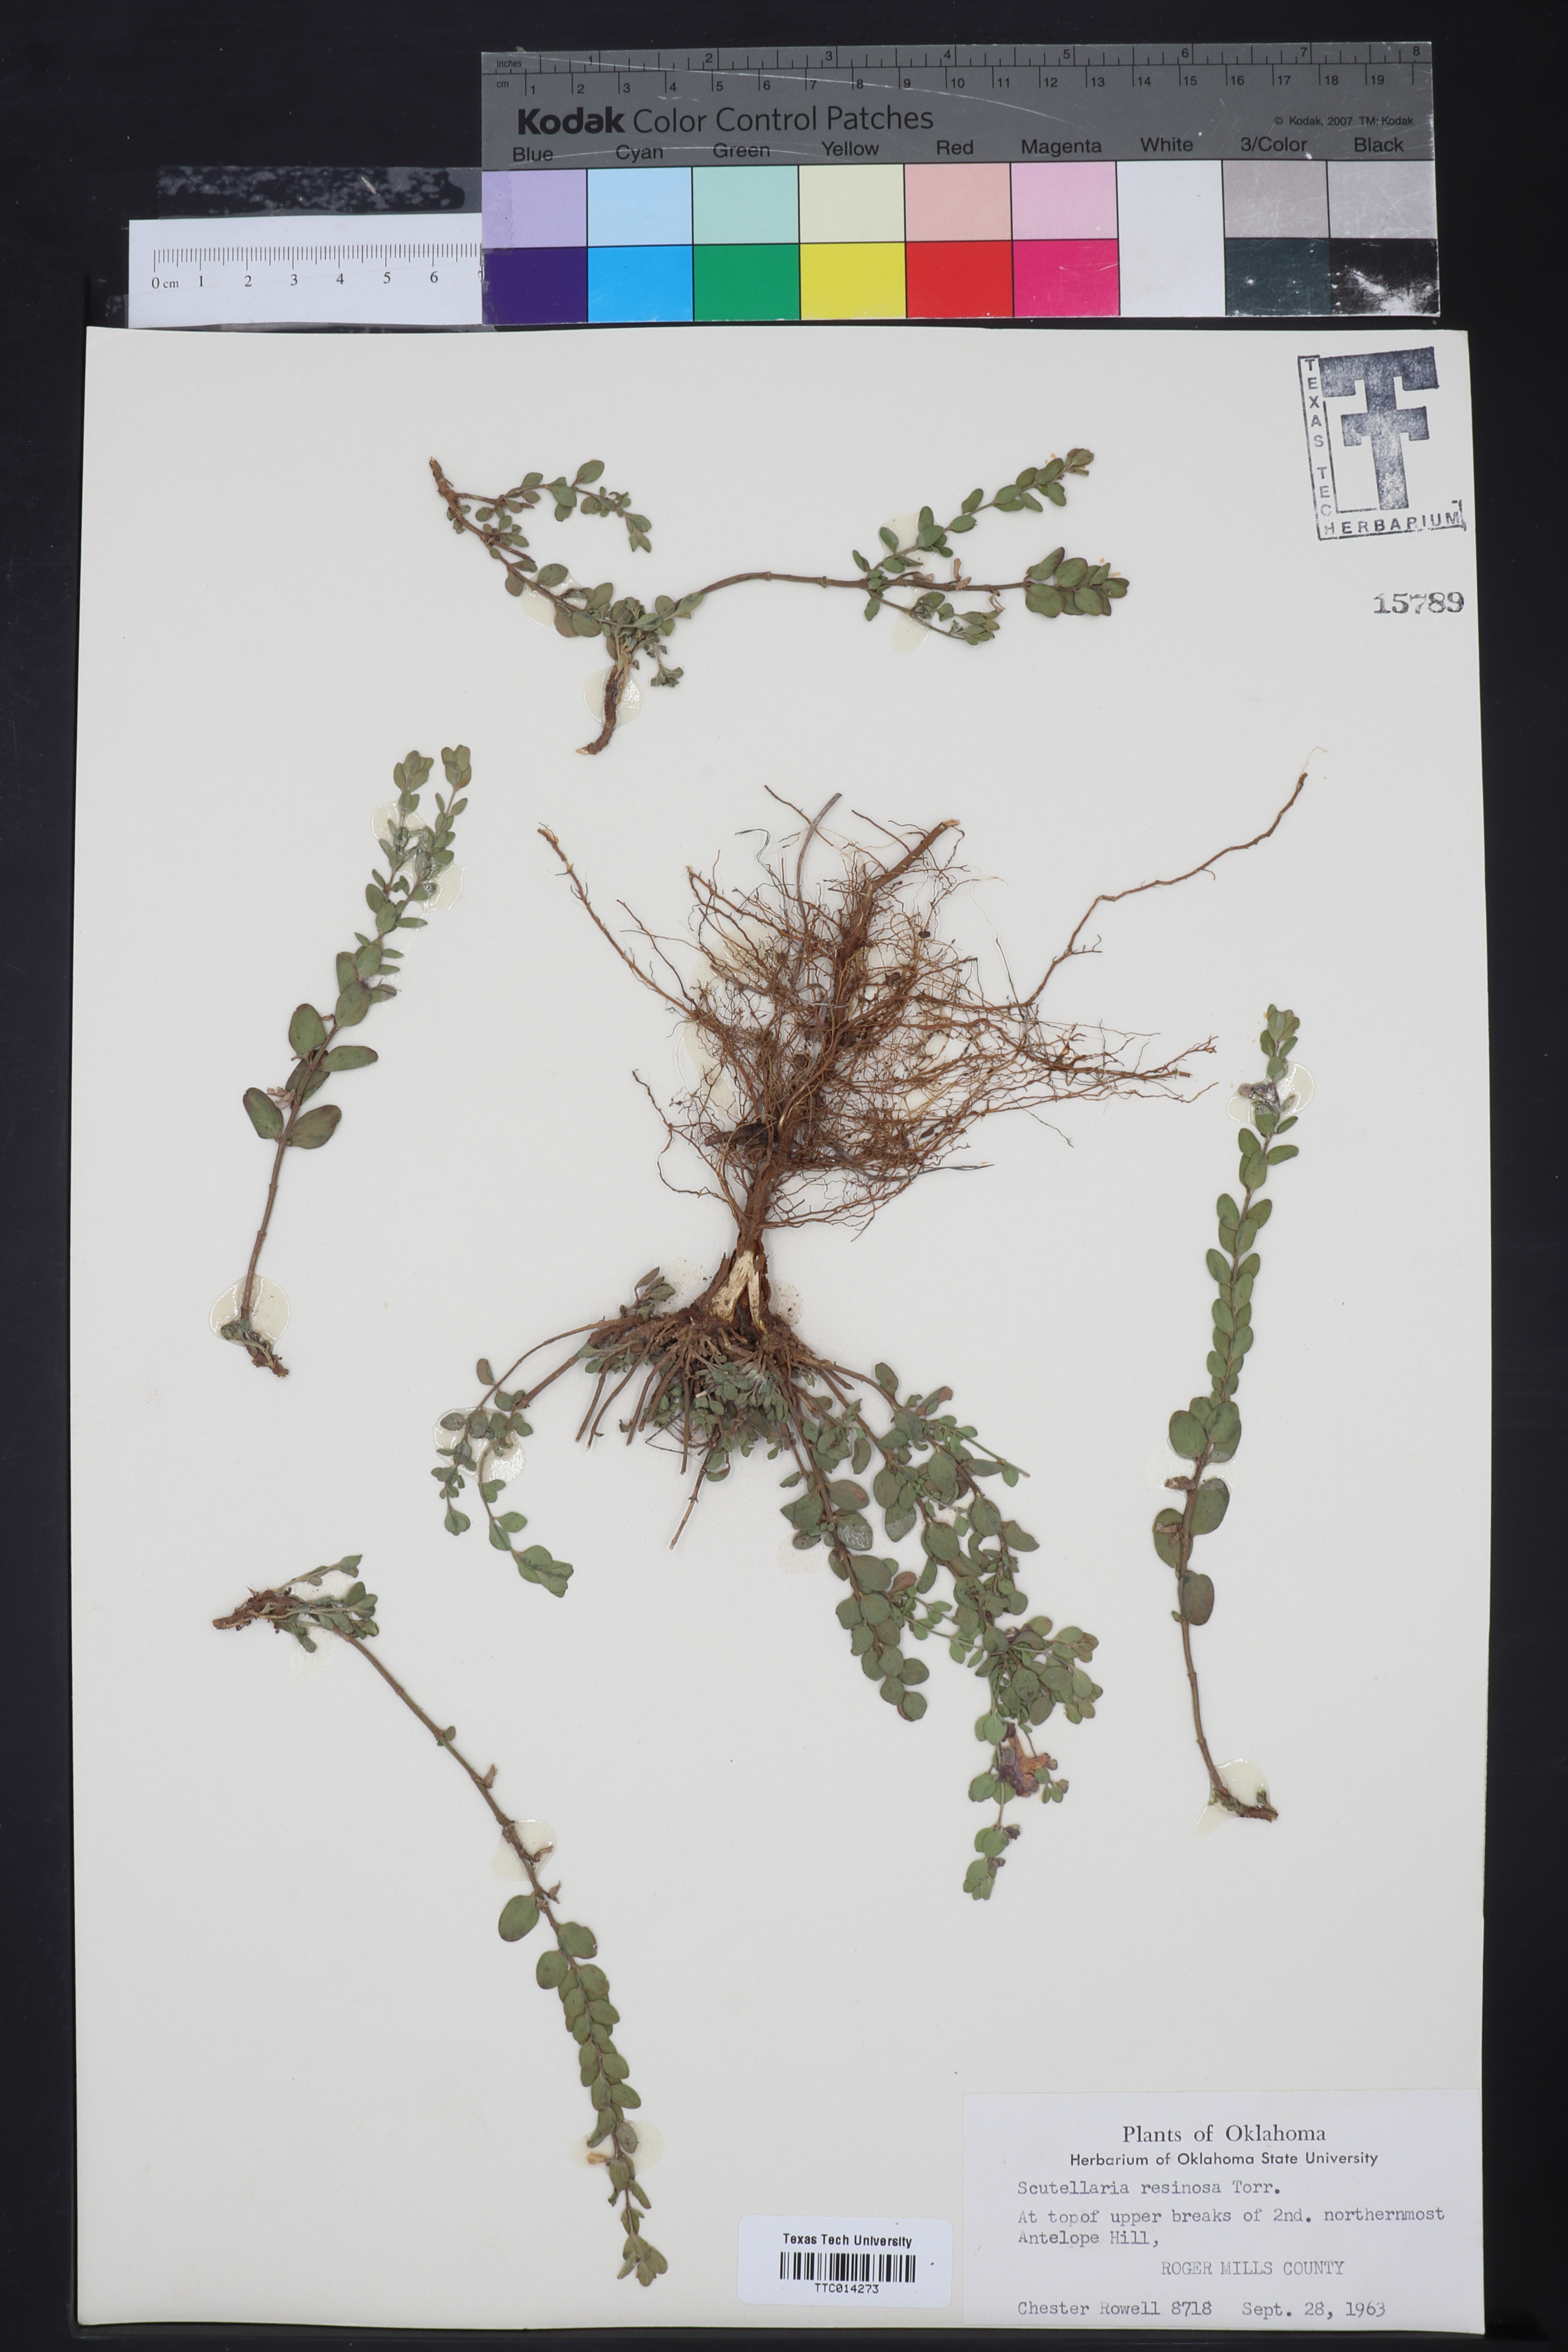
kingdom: Plantae
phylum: Tracheophyta
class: Magnoliopsida
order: Lamiales
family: Lamiaceae
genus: Scutellaria
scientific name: Scutellaria resinosa
